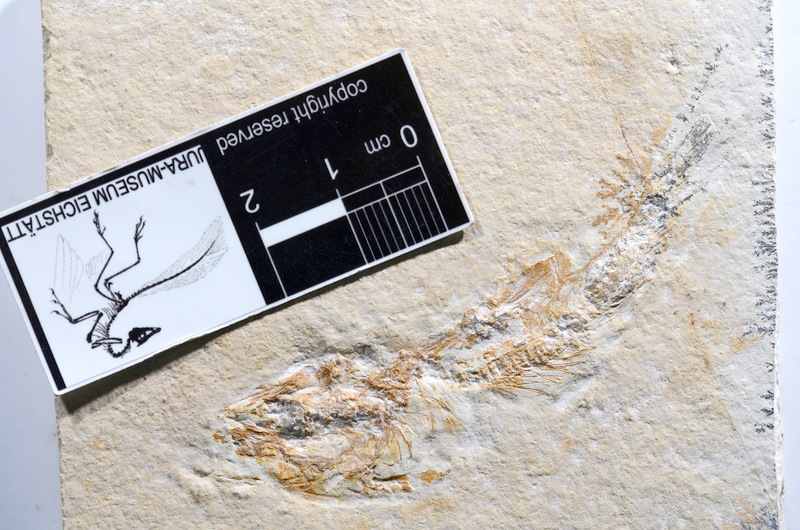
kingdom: Animalia
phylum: Chordata
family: Ascalaboidae
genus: Tharsis
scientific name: Tharsis dubius
